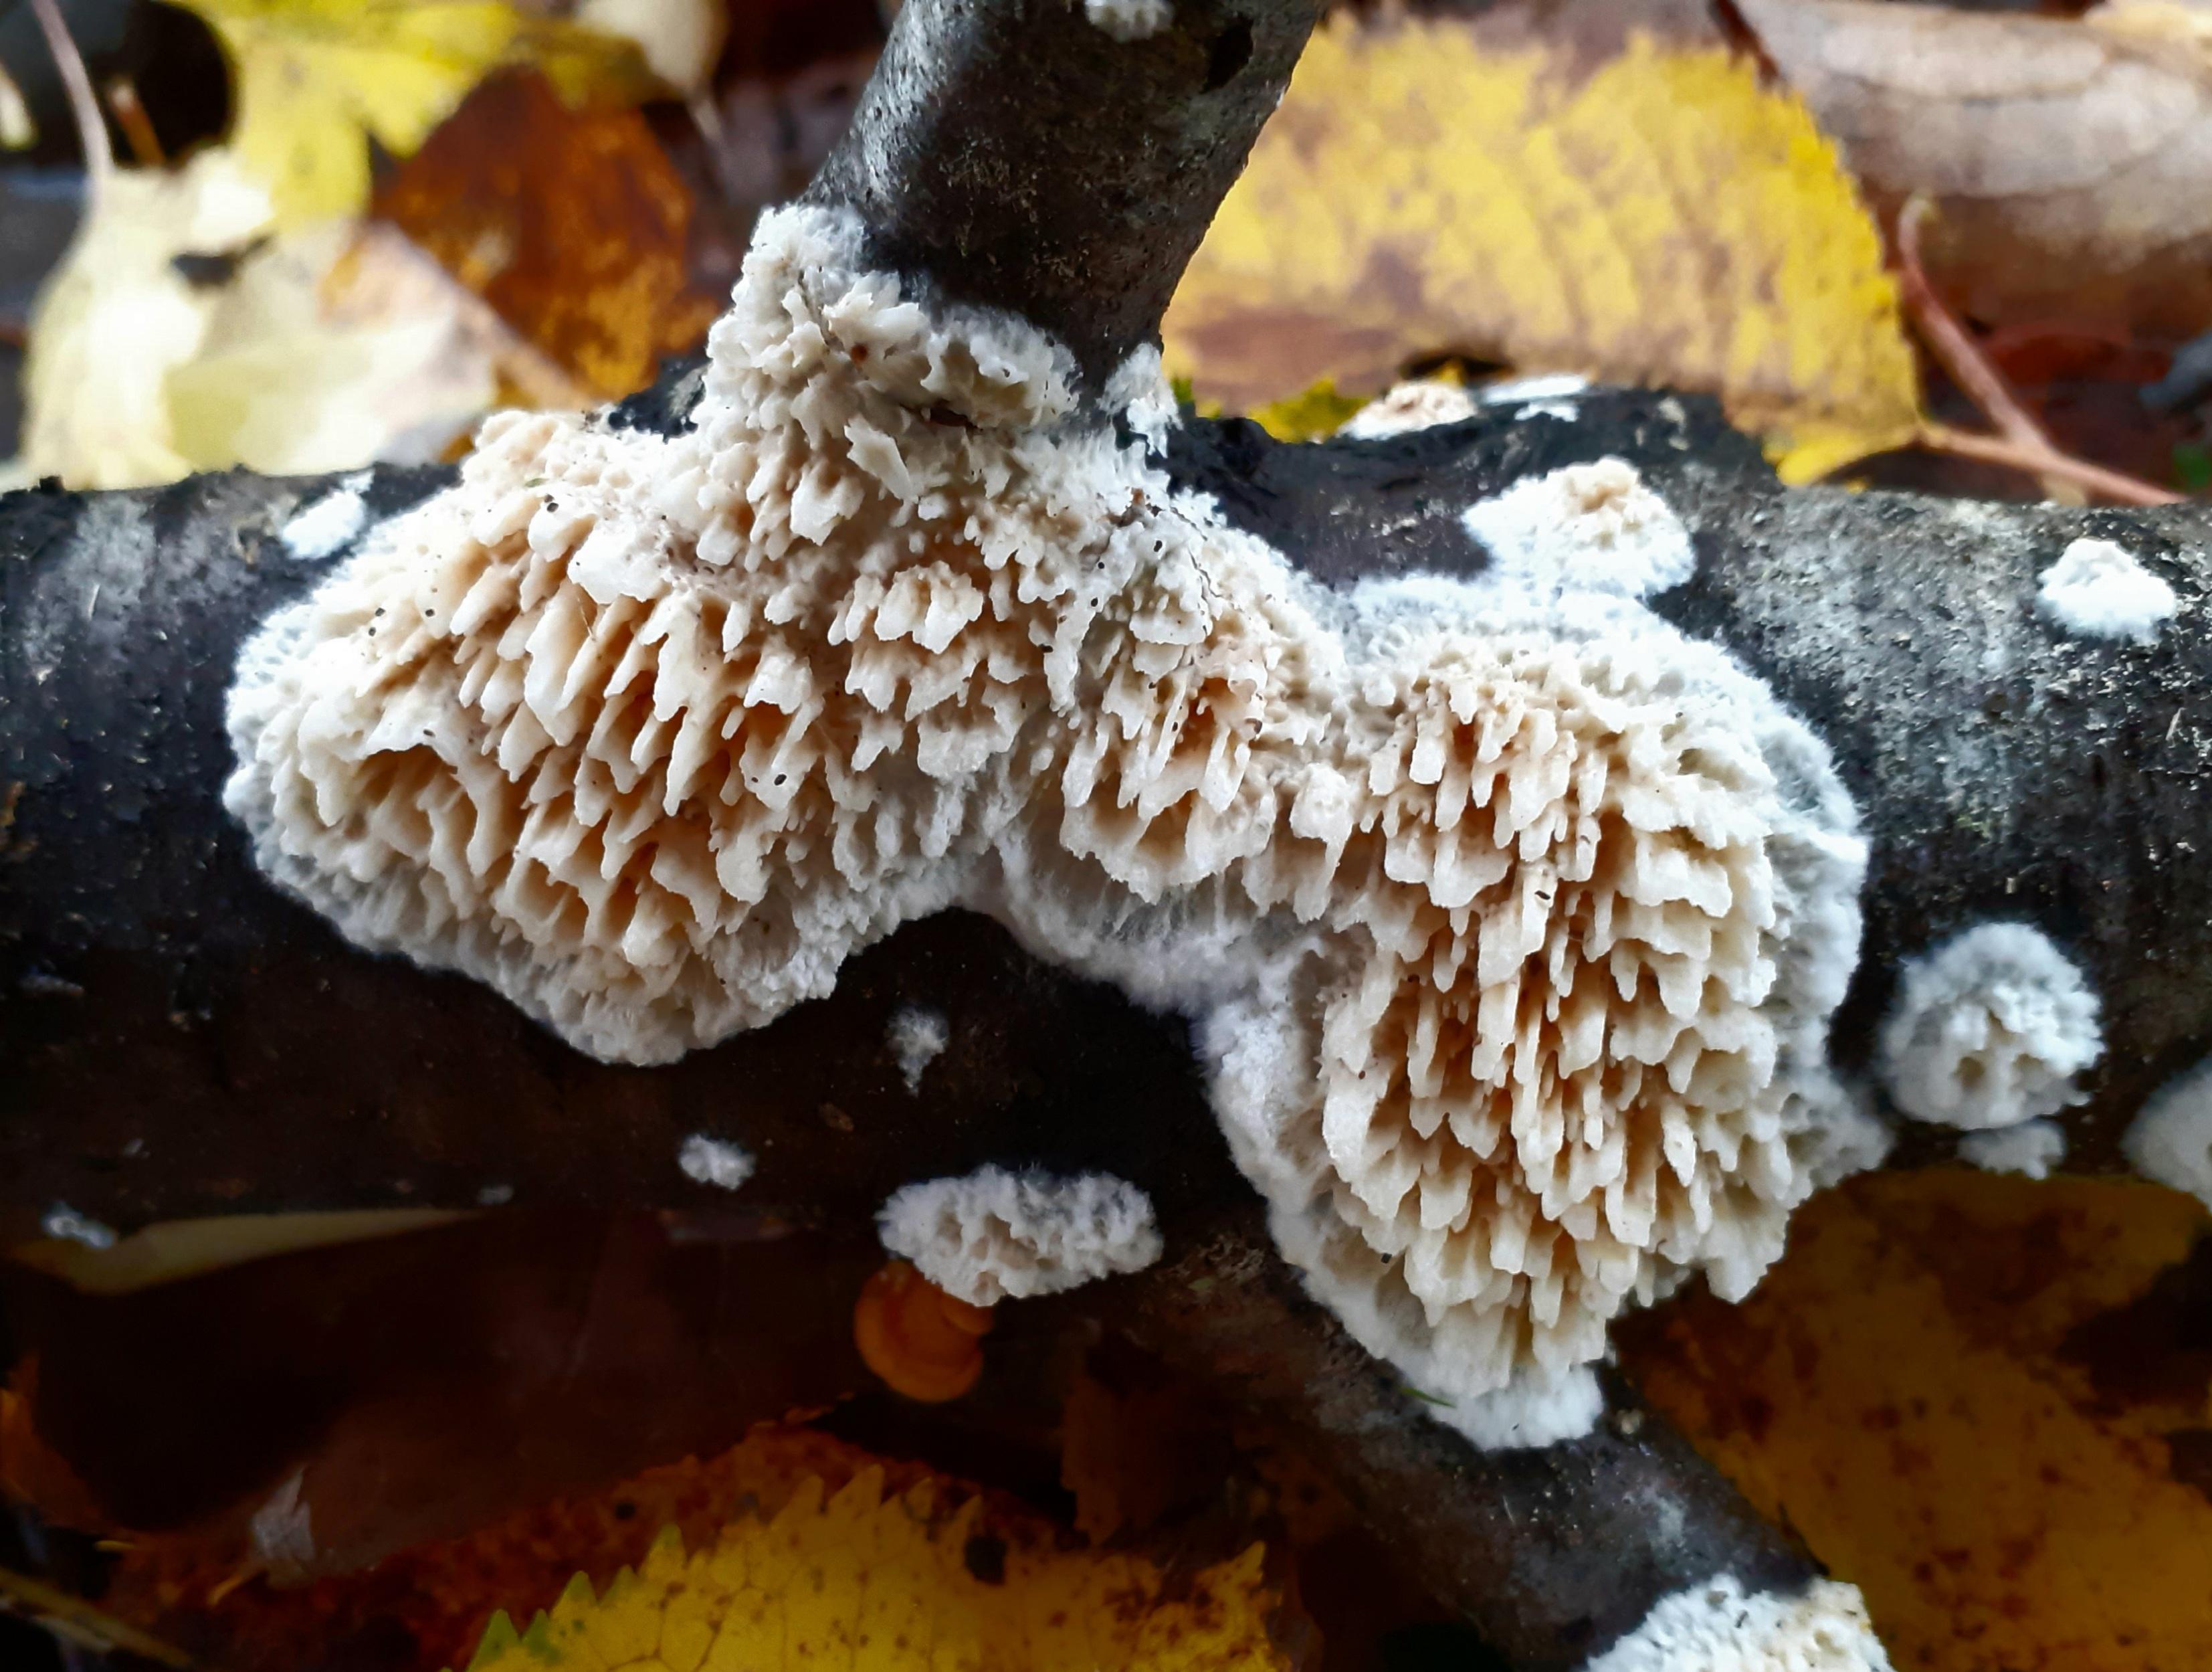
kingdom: Fungi
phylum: Basidiomycota
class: Agaricomycetes
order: Hymenochaetales
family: Schizoporaceae
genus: Xylodon
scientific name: Xylodon radula
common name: grovtandet kalkskind
